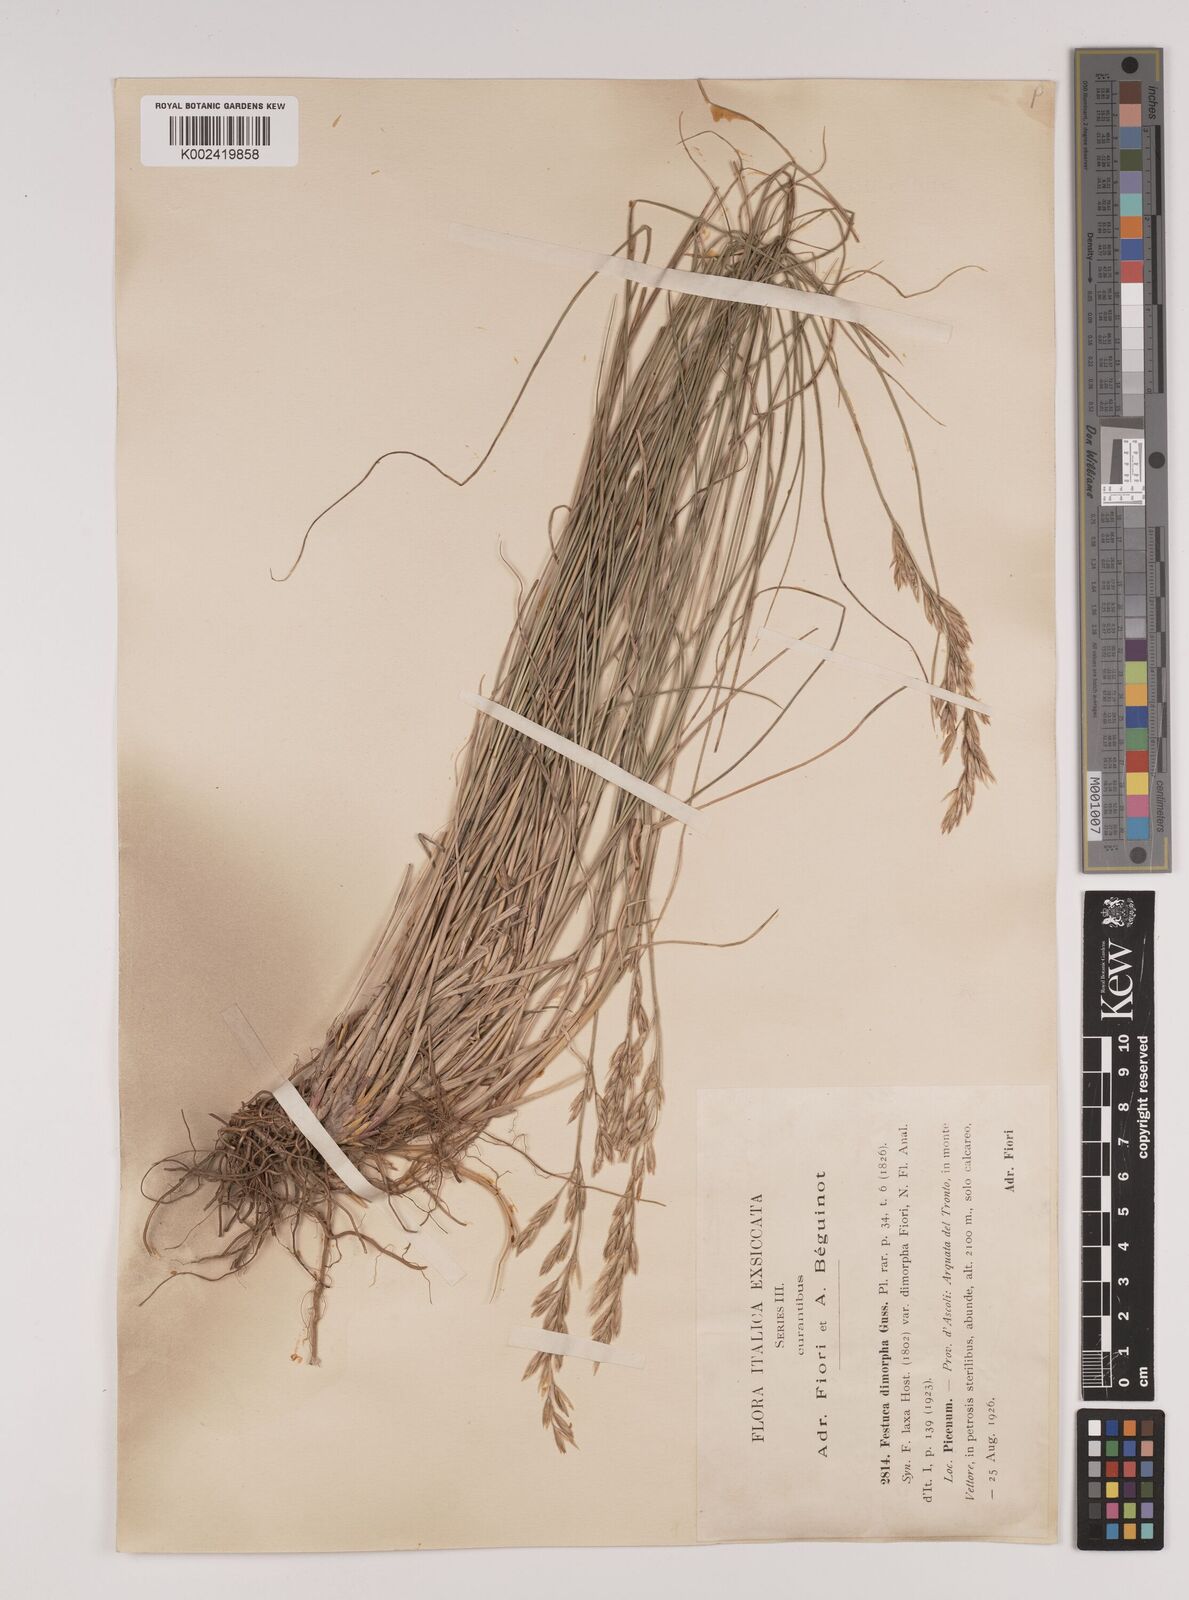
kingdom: Plantae
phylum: Tracheophyta
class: Liliopsida
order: Poales
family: Poaceae
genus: Festuca
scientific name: Festuca dimorpha
